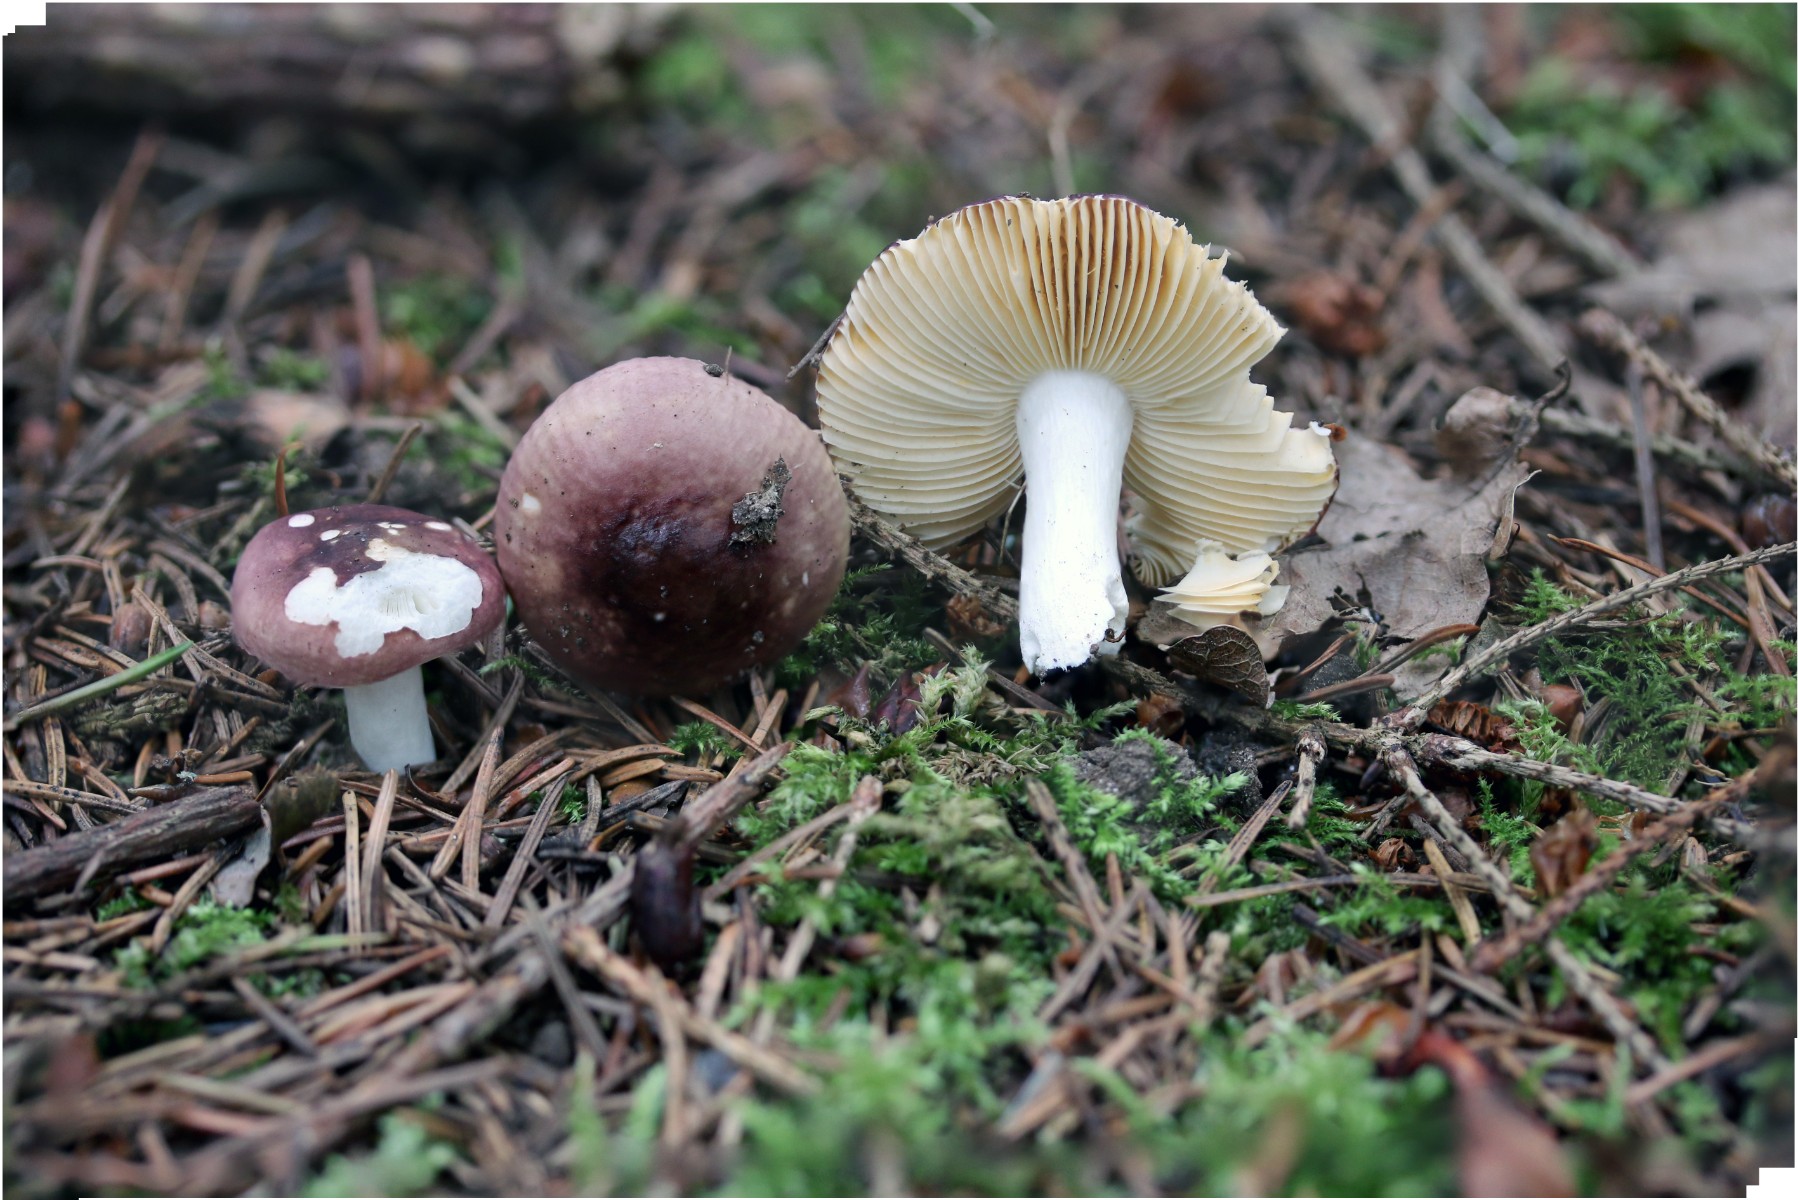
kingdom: Fungi
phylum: Basidiomycota
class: Agaricomycetes
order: Russulales
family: Russulaceae
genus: Russula
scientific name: Russula nauseosa
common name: spinkel skørhat
